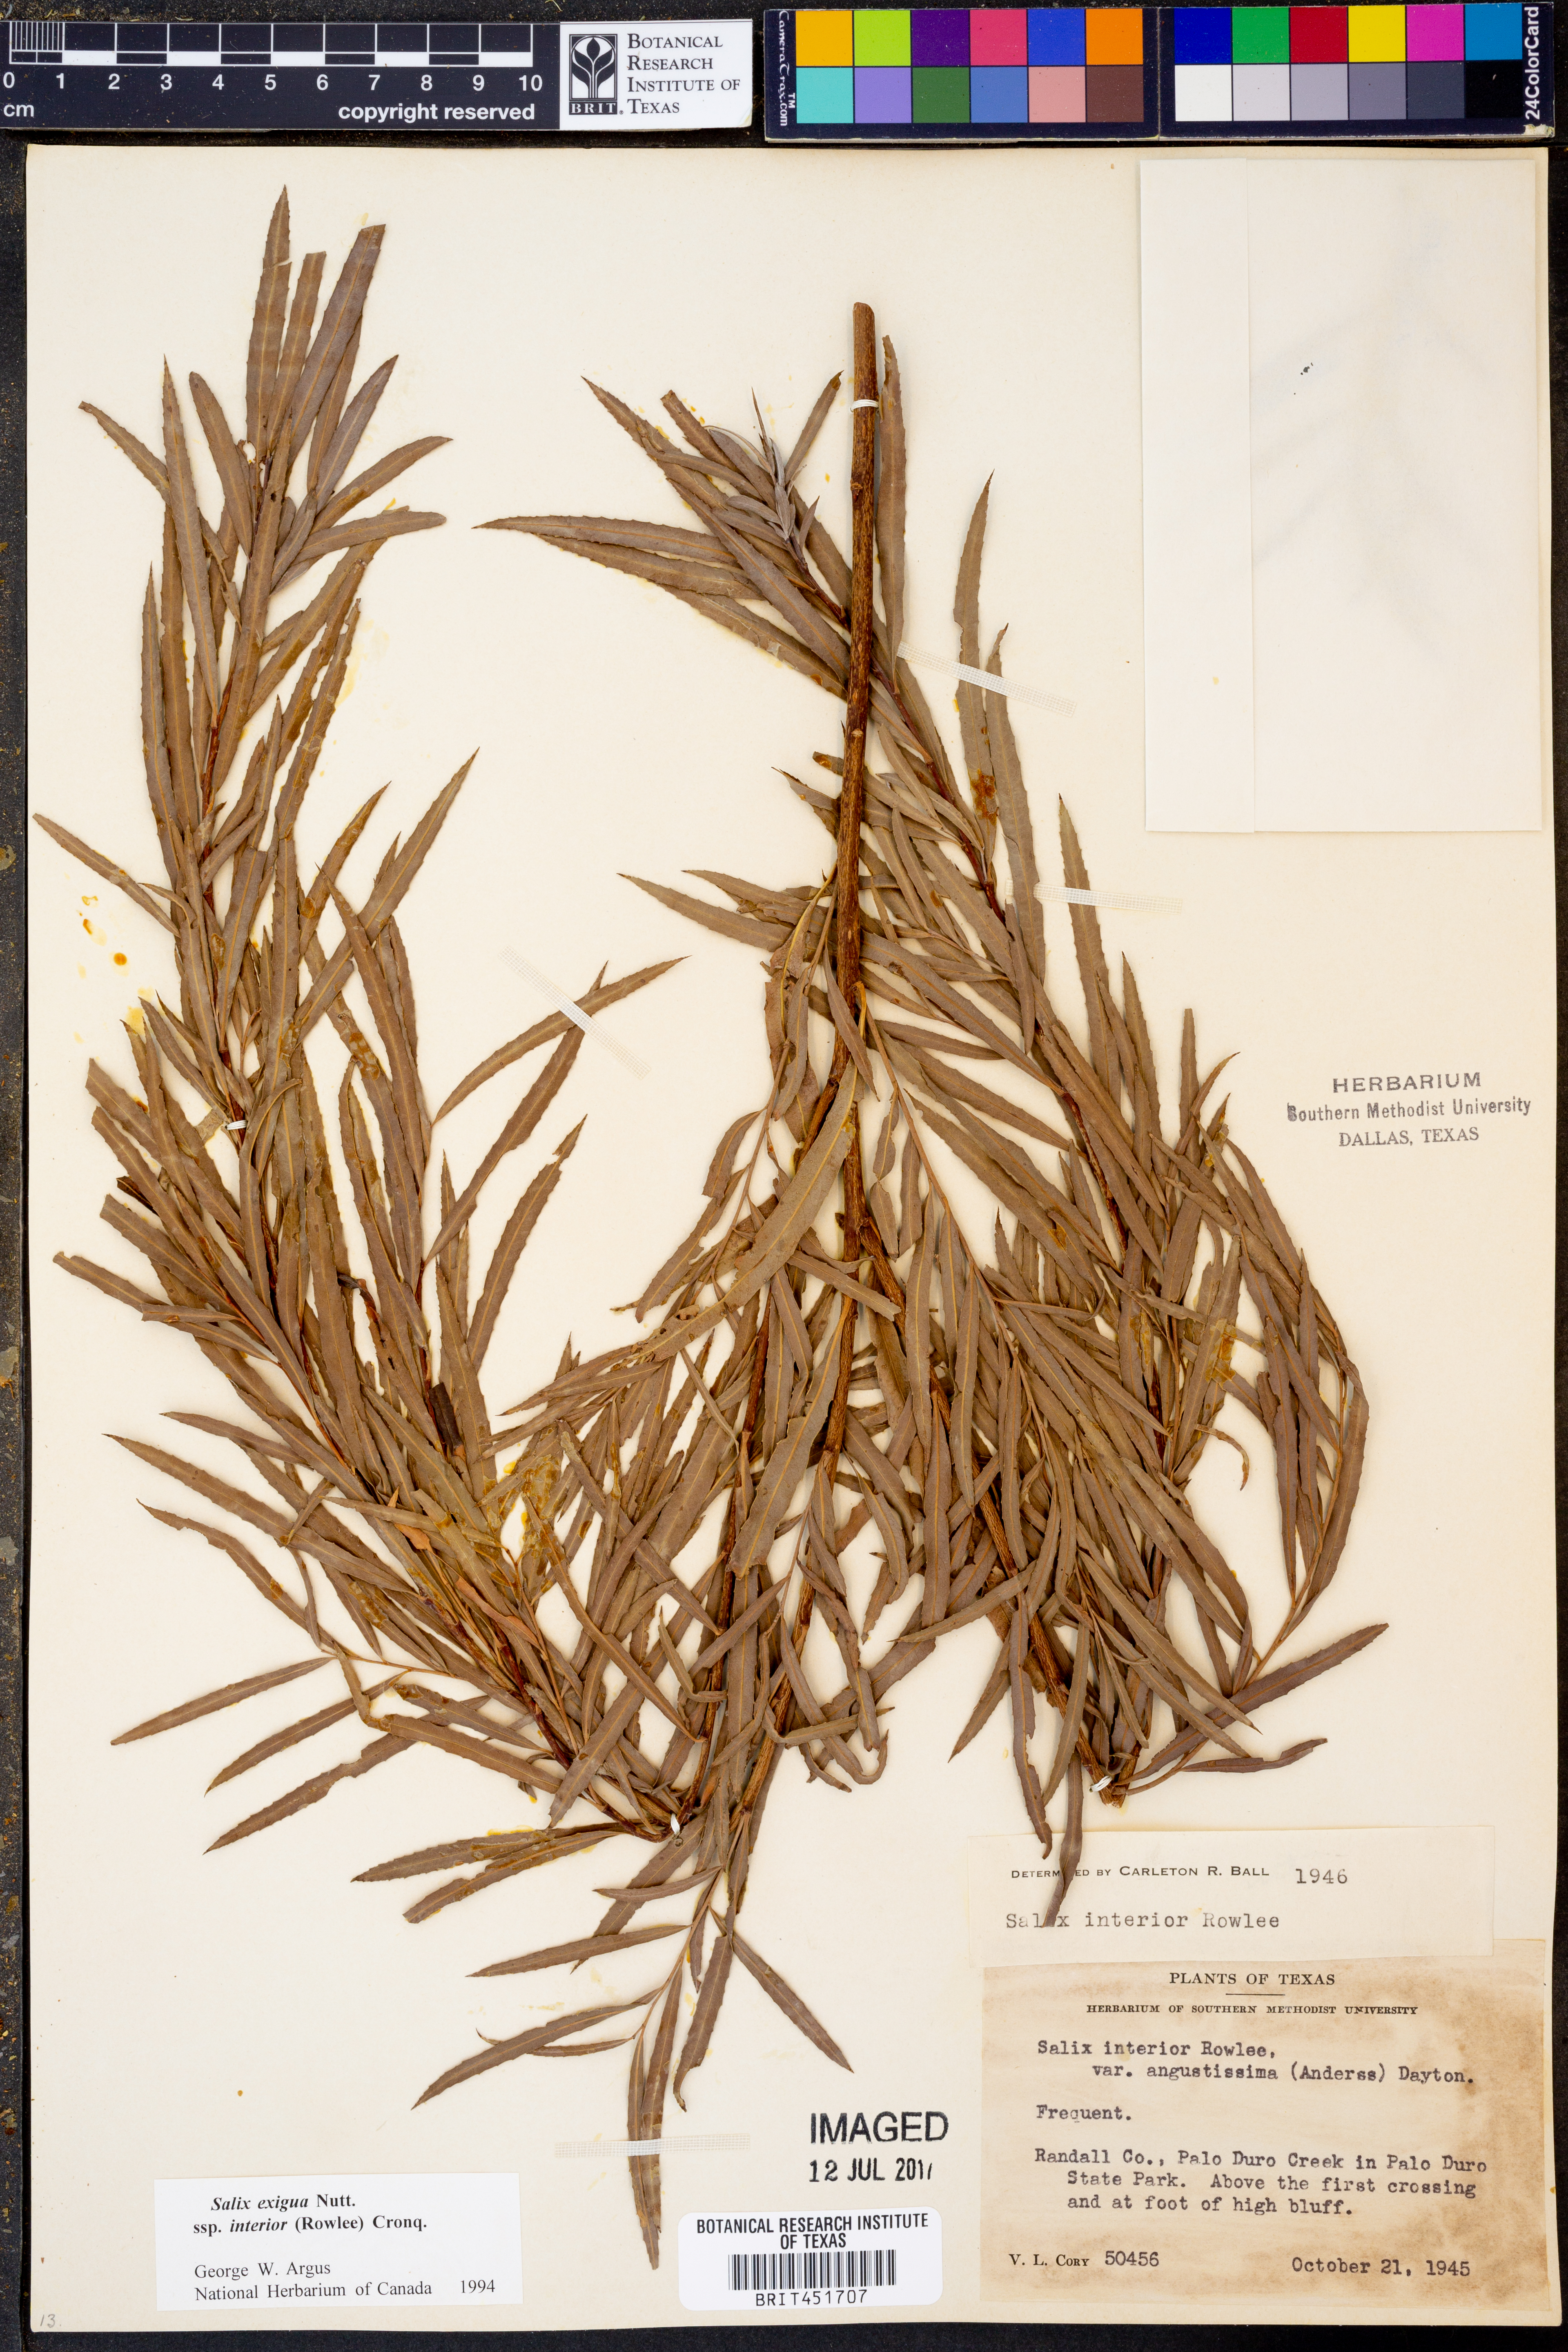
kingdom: Plantae
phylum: Tracheophyta
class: Magnoliopsida
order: Malpighiales
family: Salicaceae
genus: Salix
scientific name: Salix interior
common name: Sandbar willow
